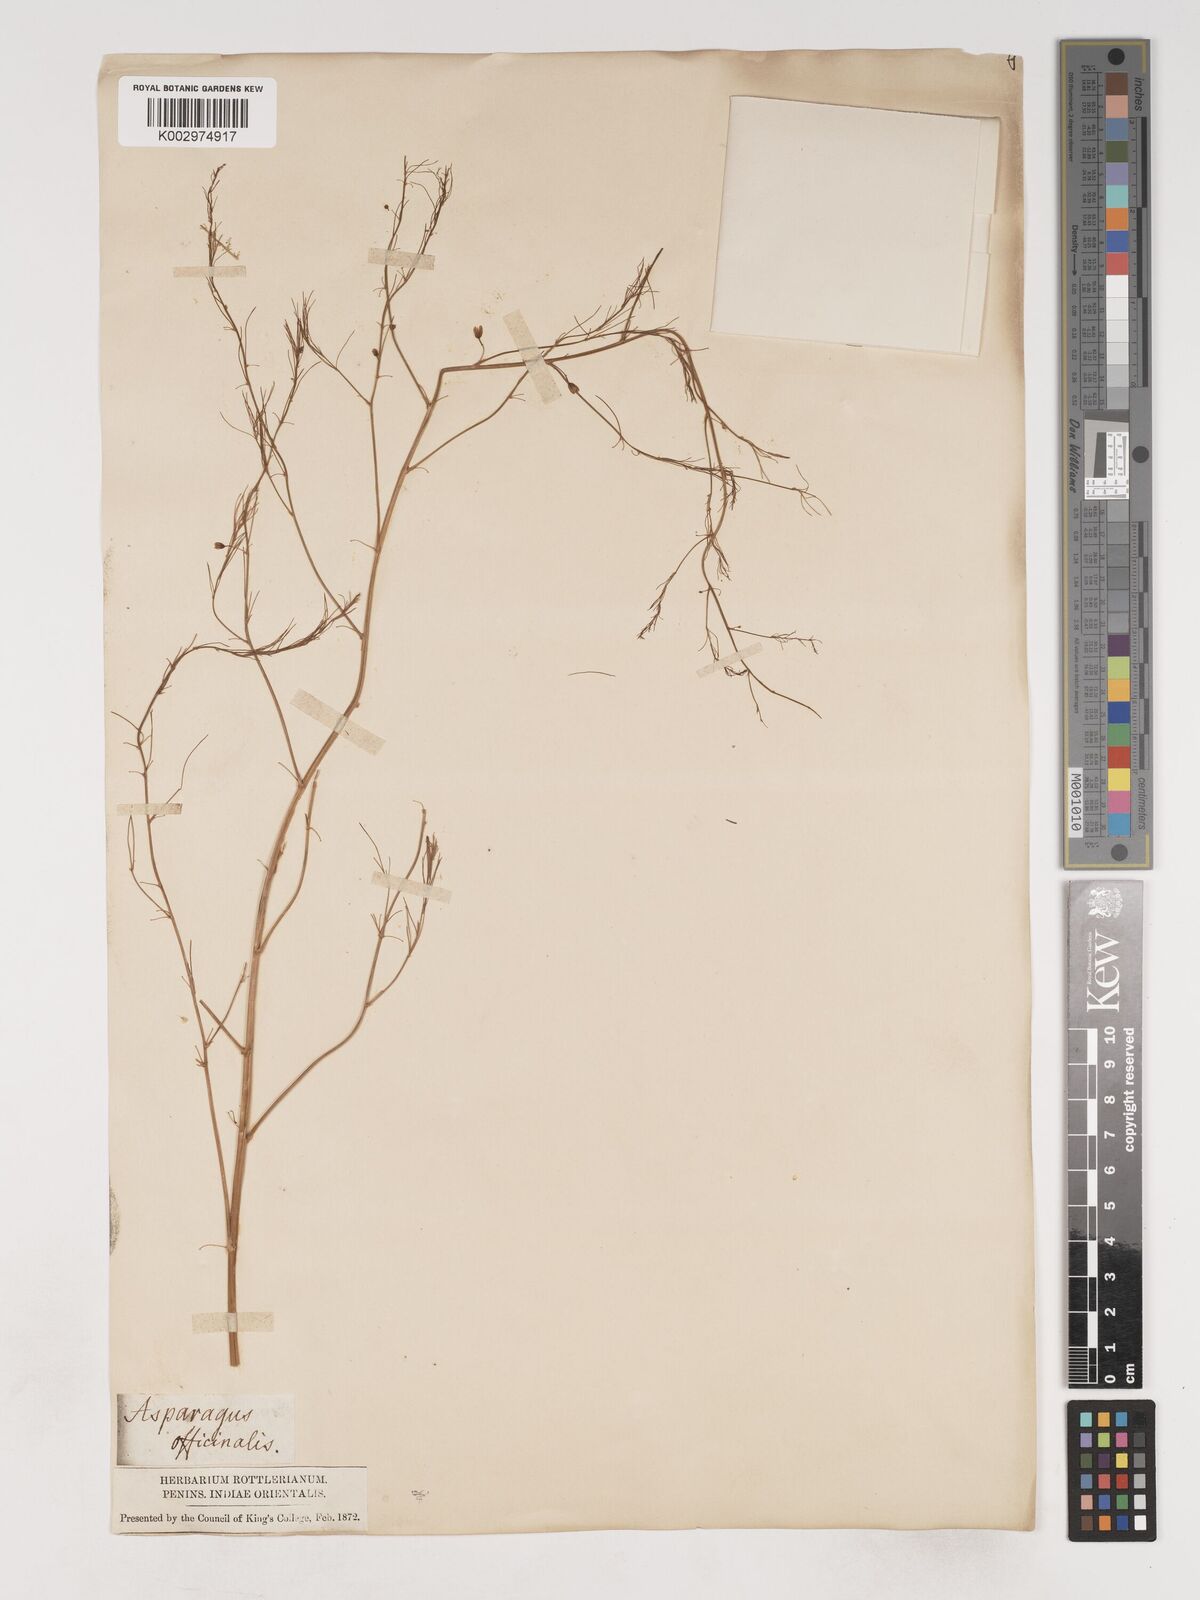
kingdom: Plantae
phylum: Tracheophyta
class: Liliopsida
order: Asparagales
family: Asparagaceae
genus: Asparagus
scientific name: Asparagus officinalis
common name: Garden asparagus
